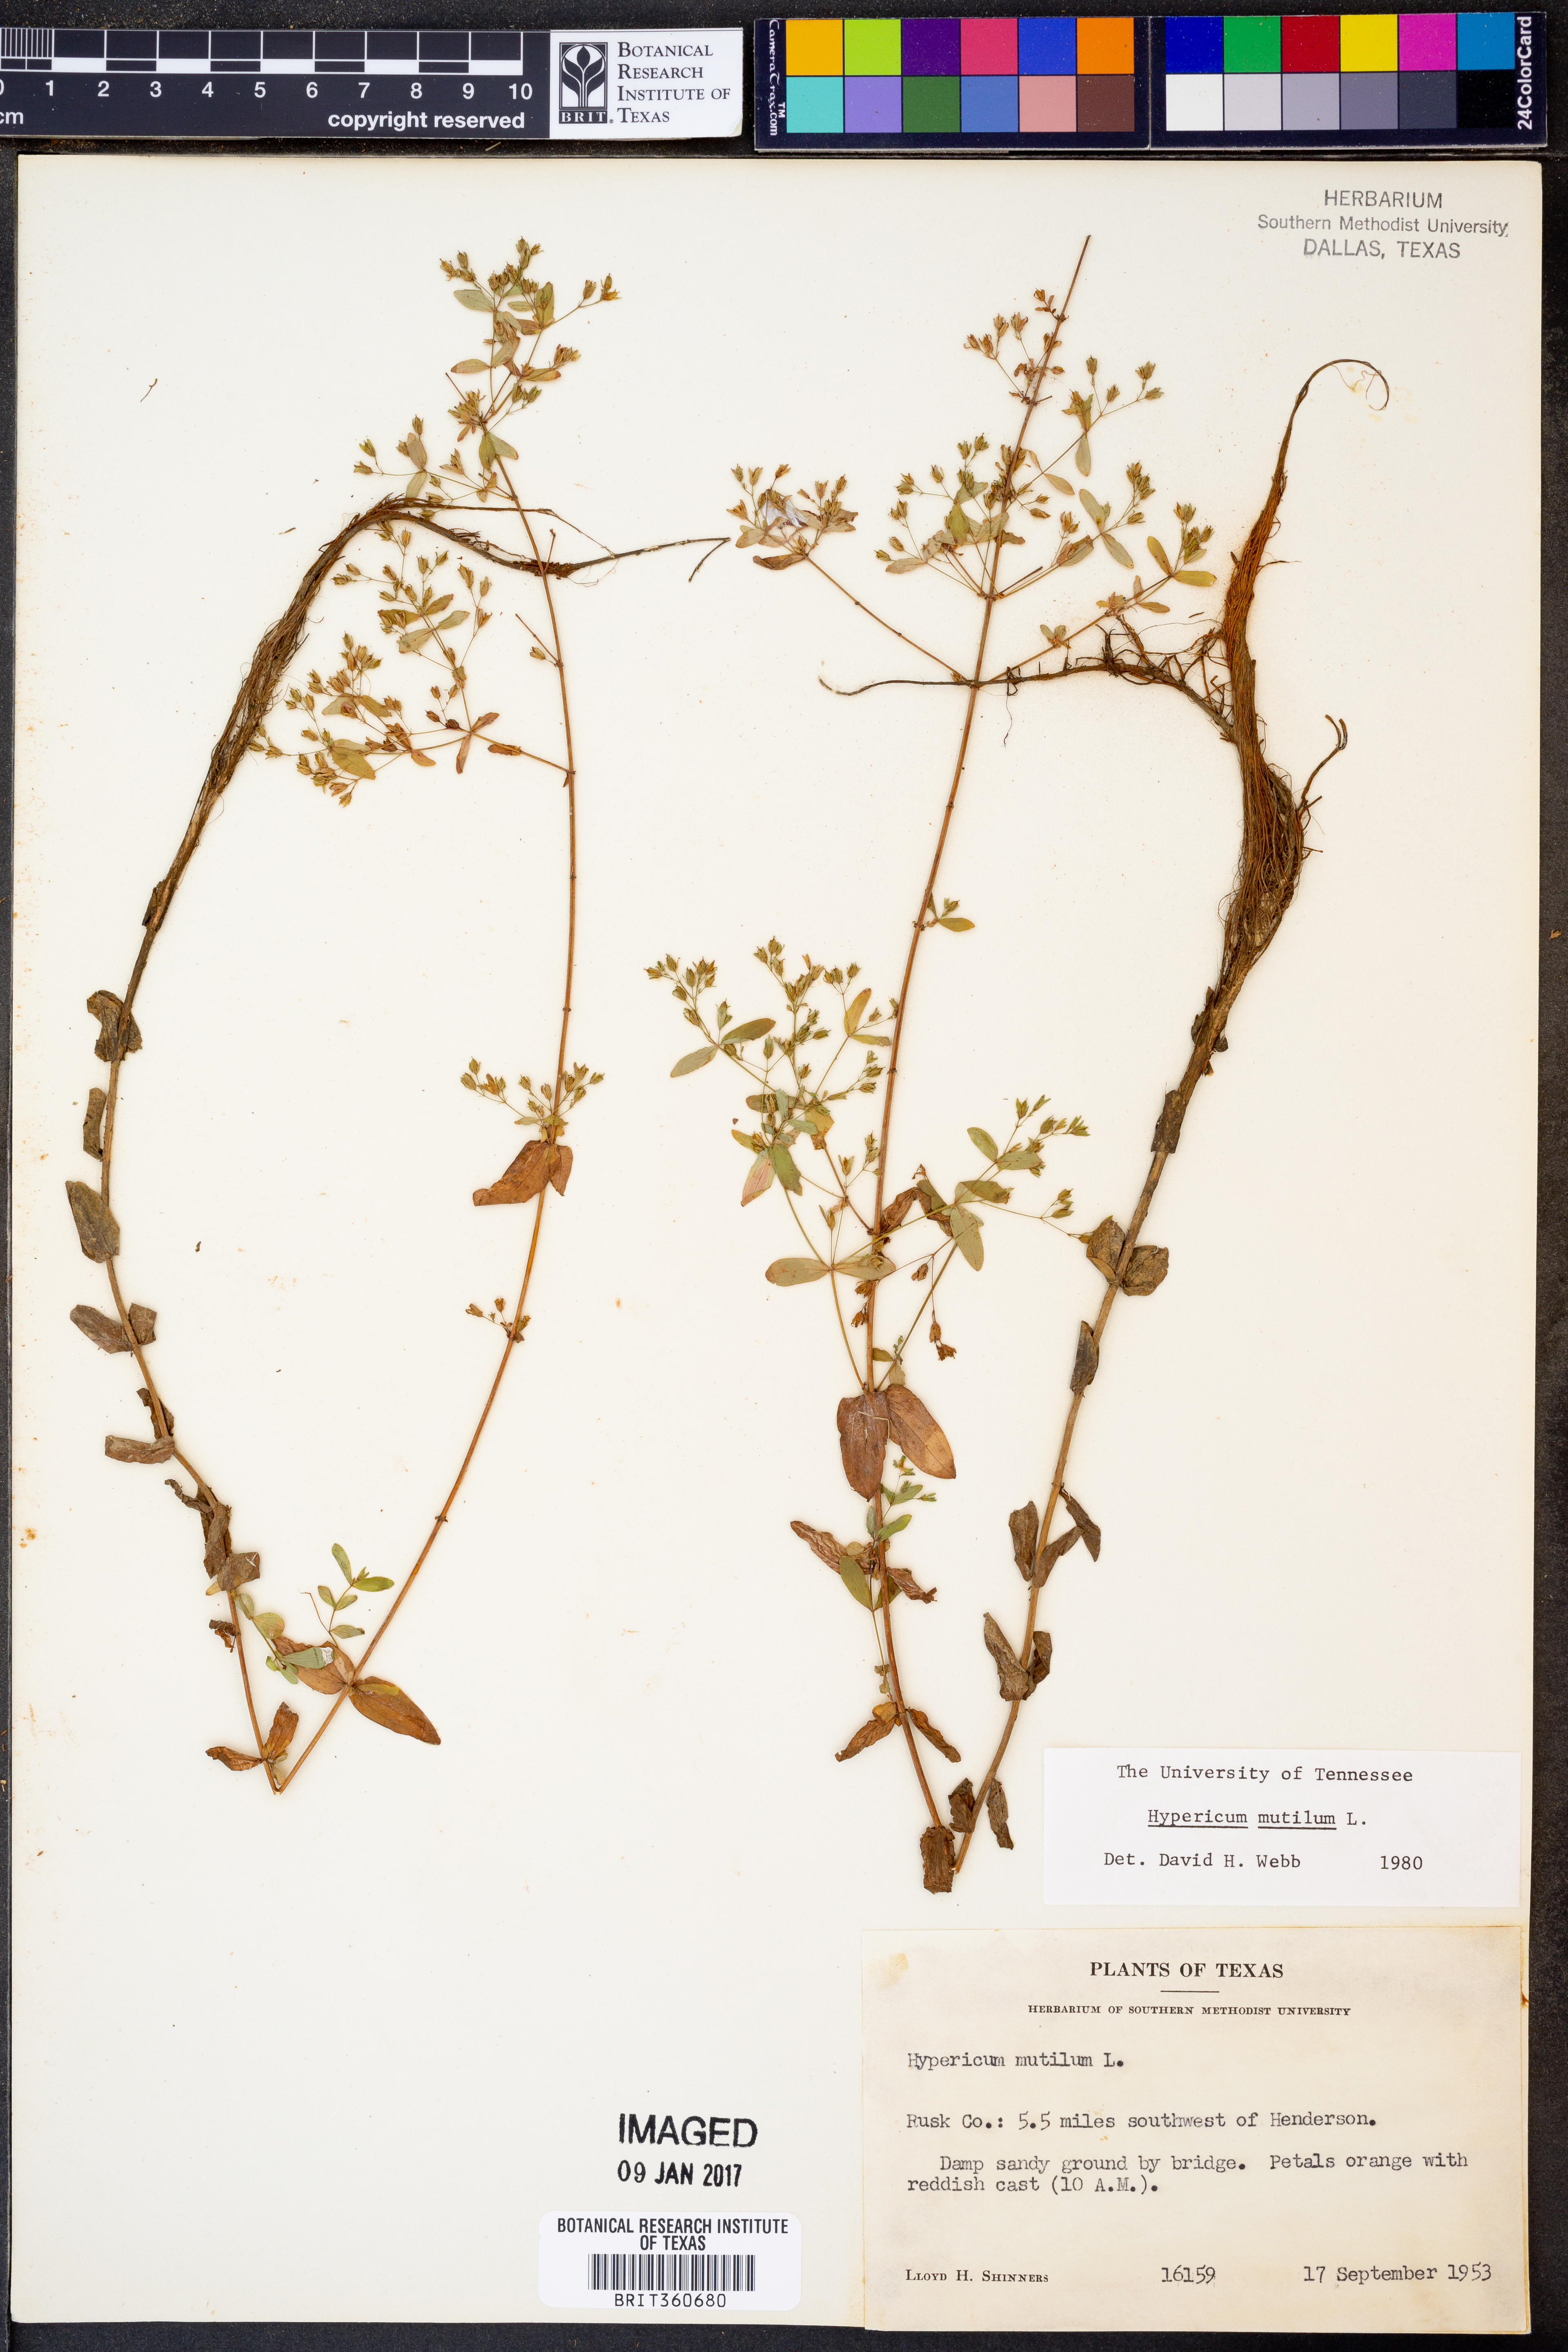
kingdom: Plantae
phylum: Tracheophyta
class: Magnoliopsida
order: Malpighiales
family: Hypericaceae
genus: Hypericum
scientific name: Hypericum mutilum
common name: Dwarf st. john's-wort
